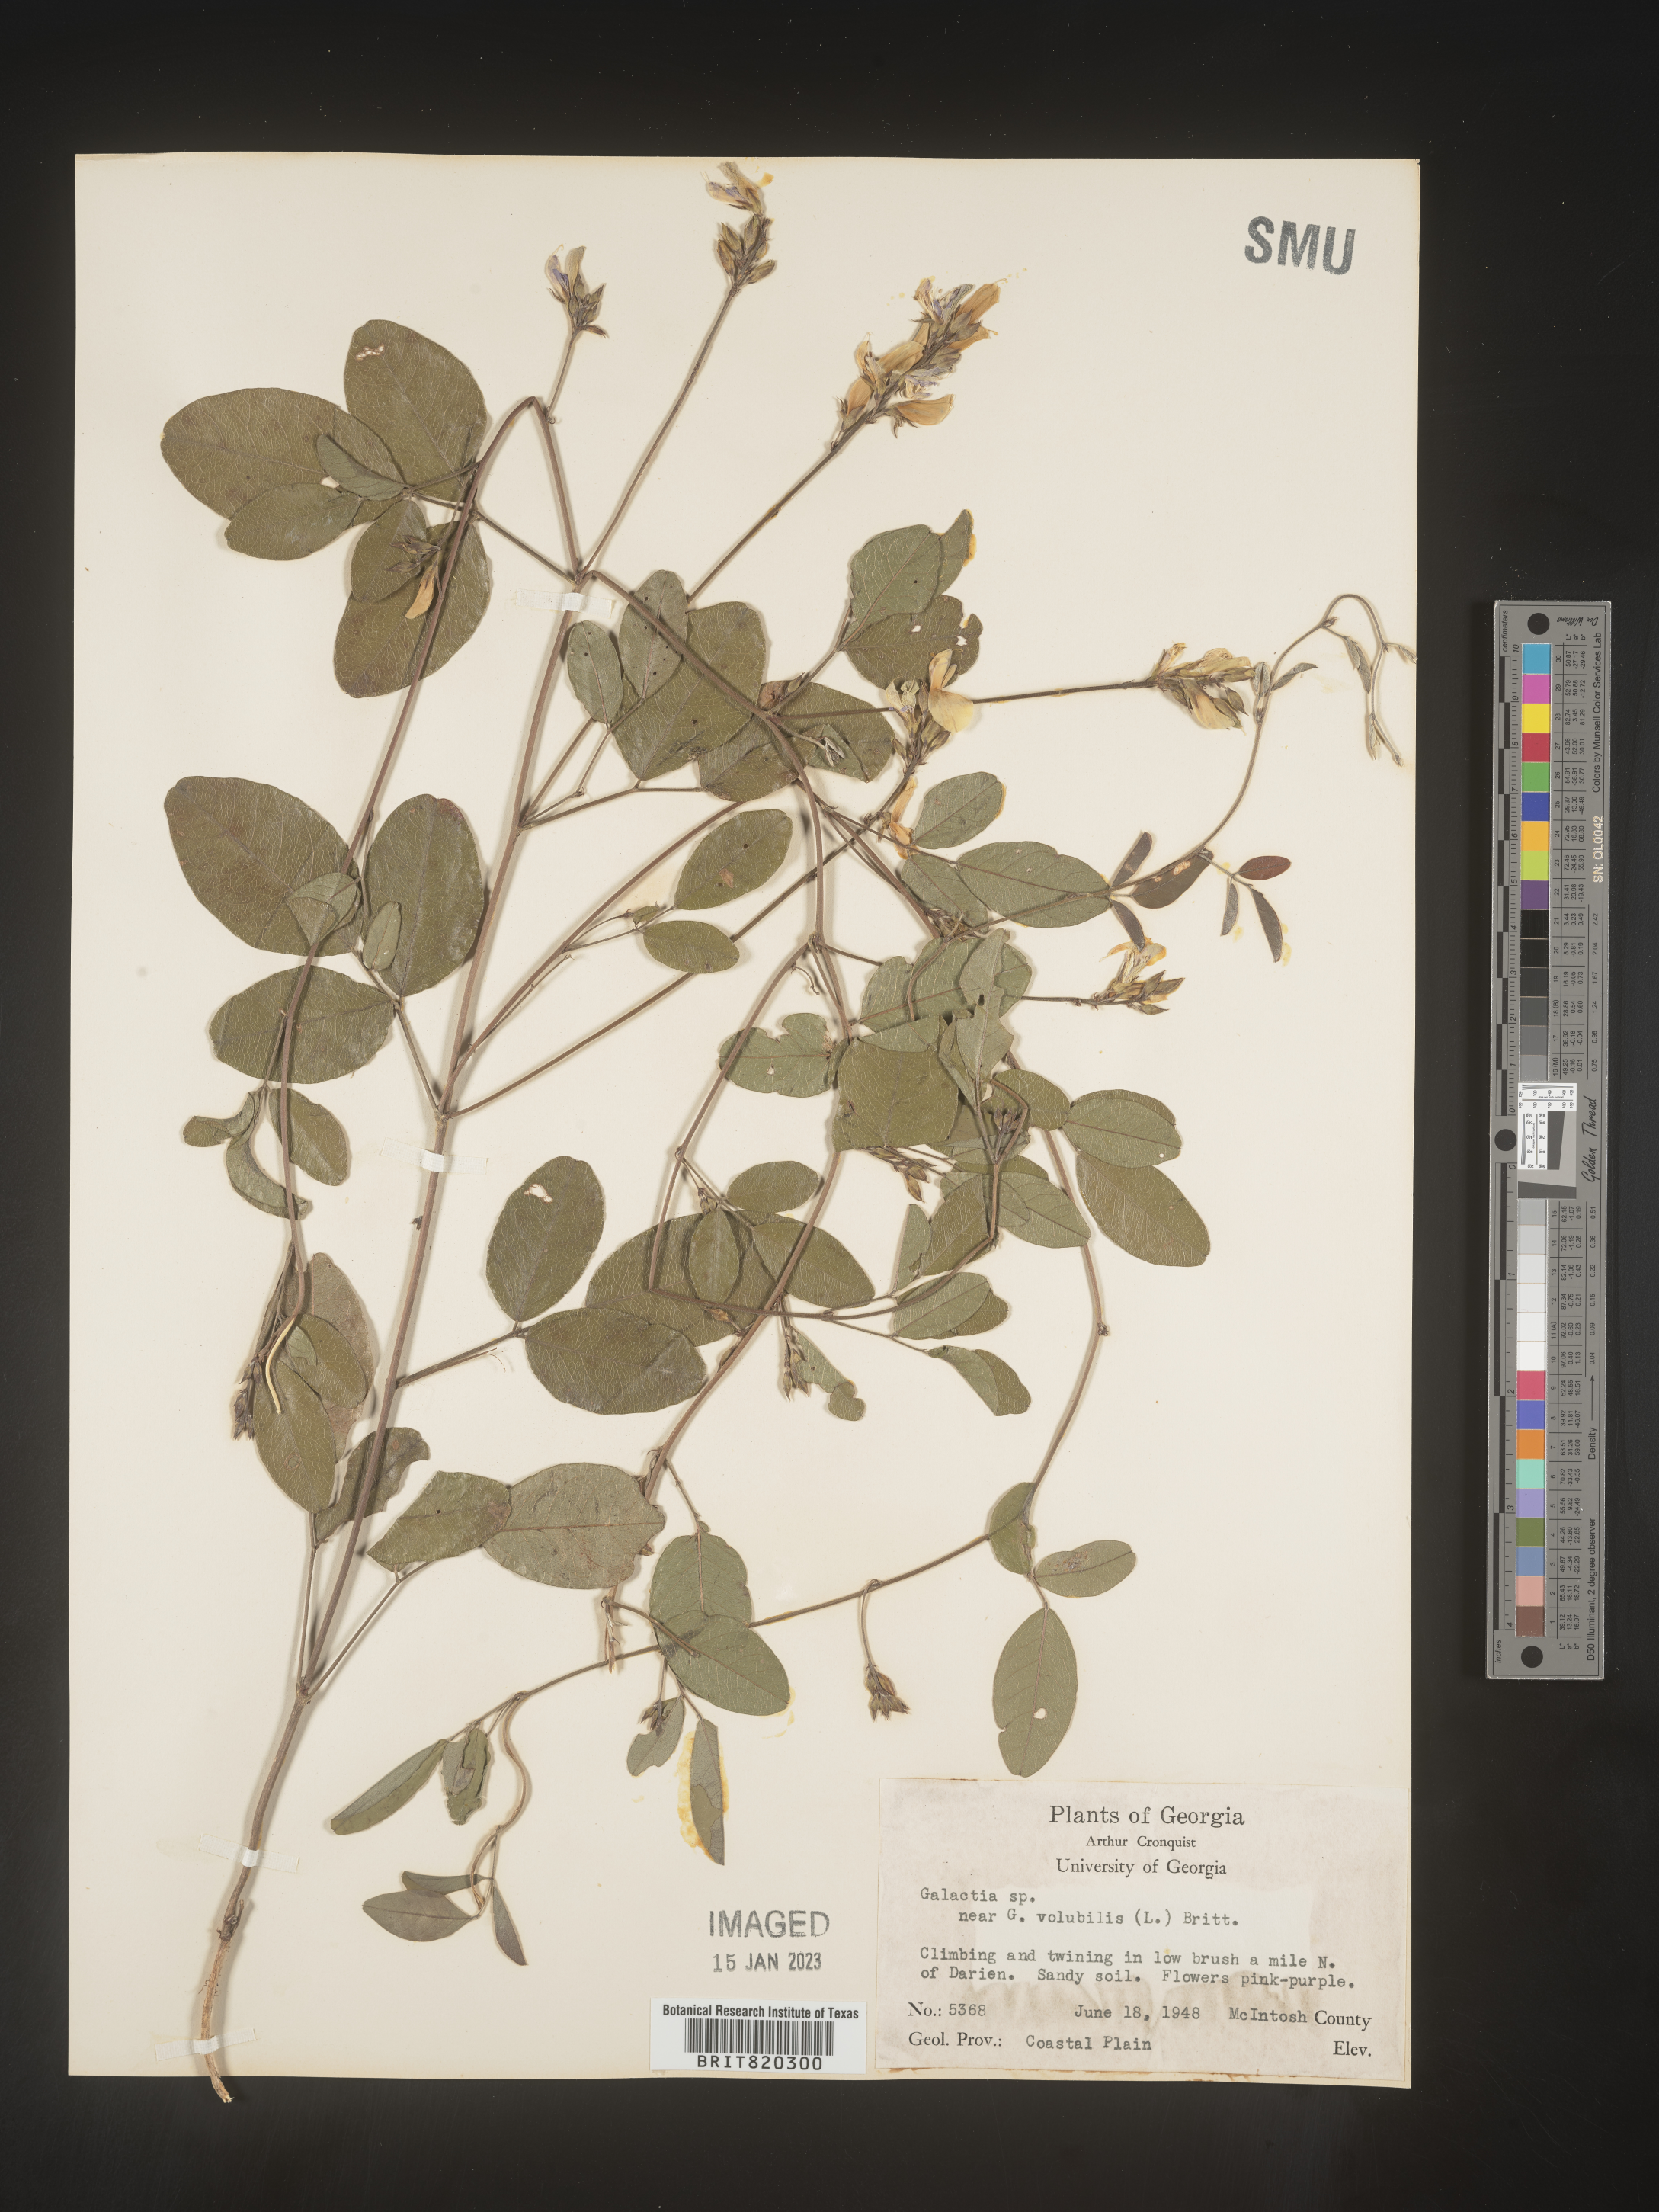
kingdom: Plantae
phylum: Tracheophyta
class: Magnoliopsida
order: Fabales
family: Fabaceae
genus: Galactia
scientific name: Galactia regularis
